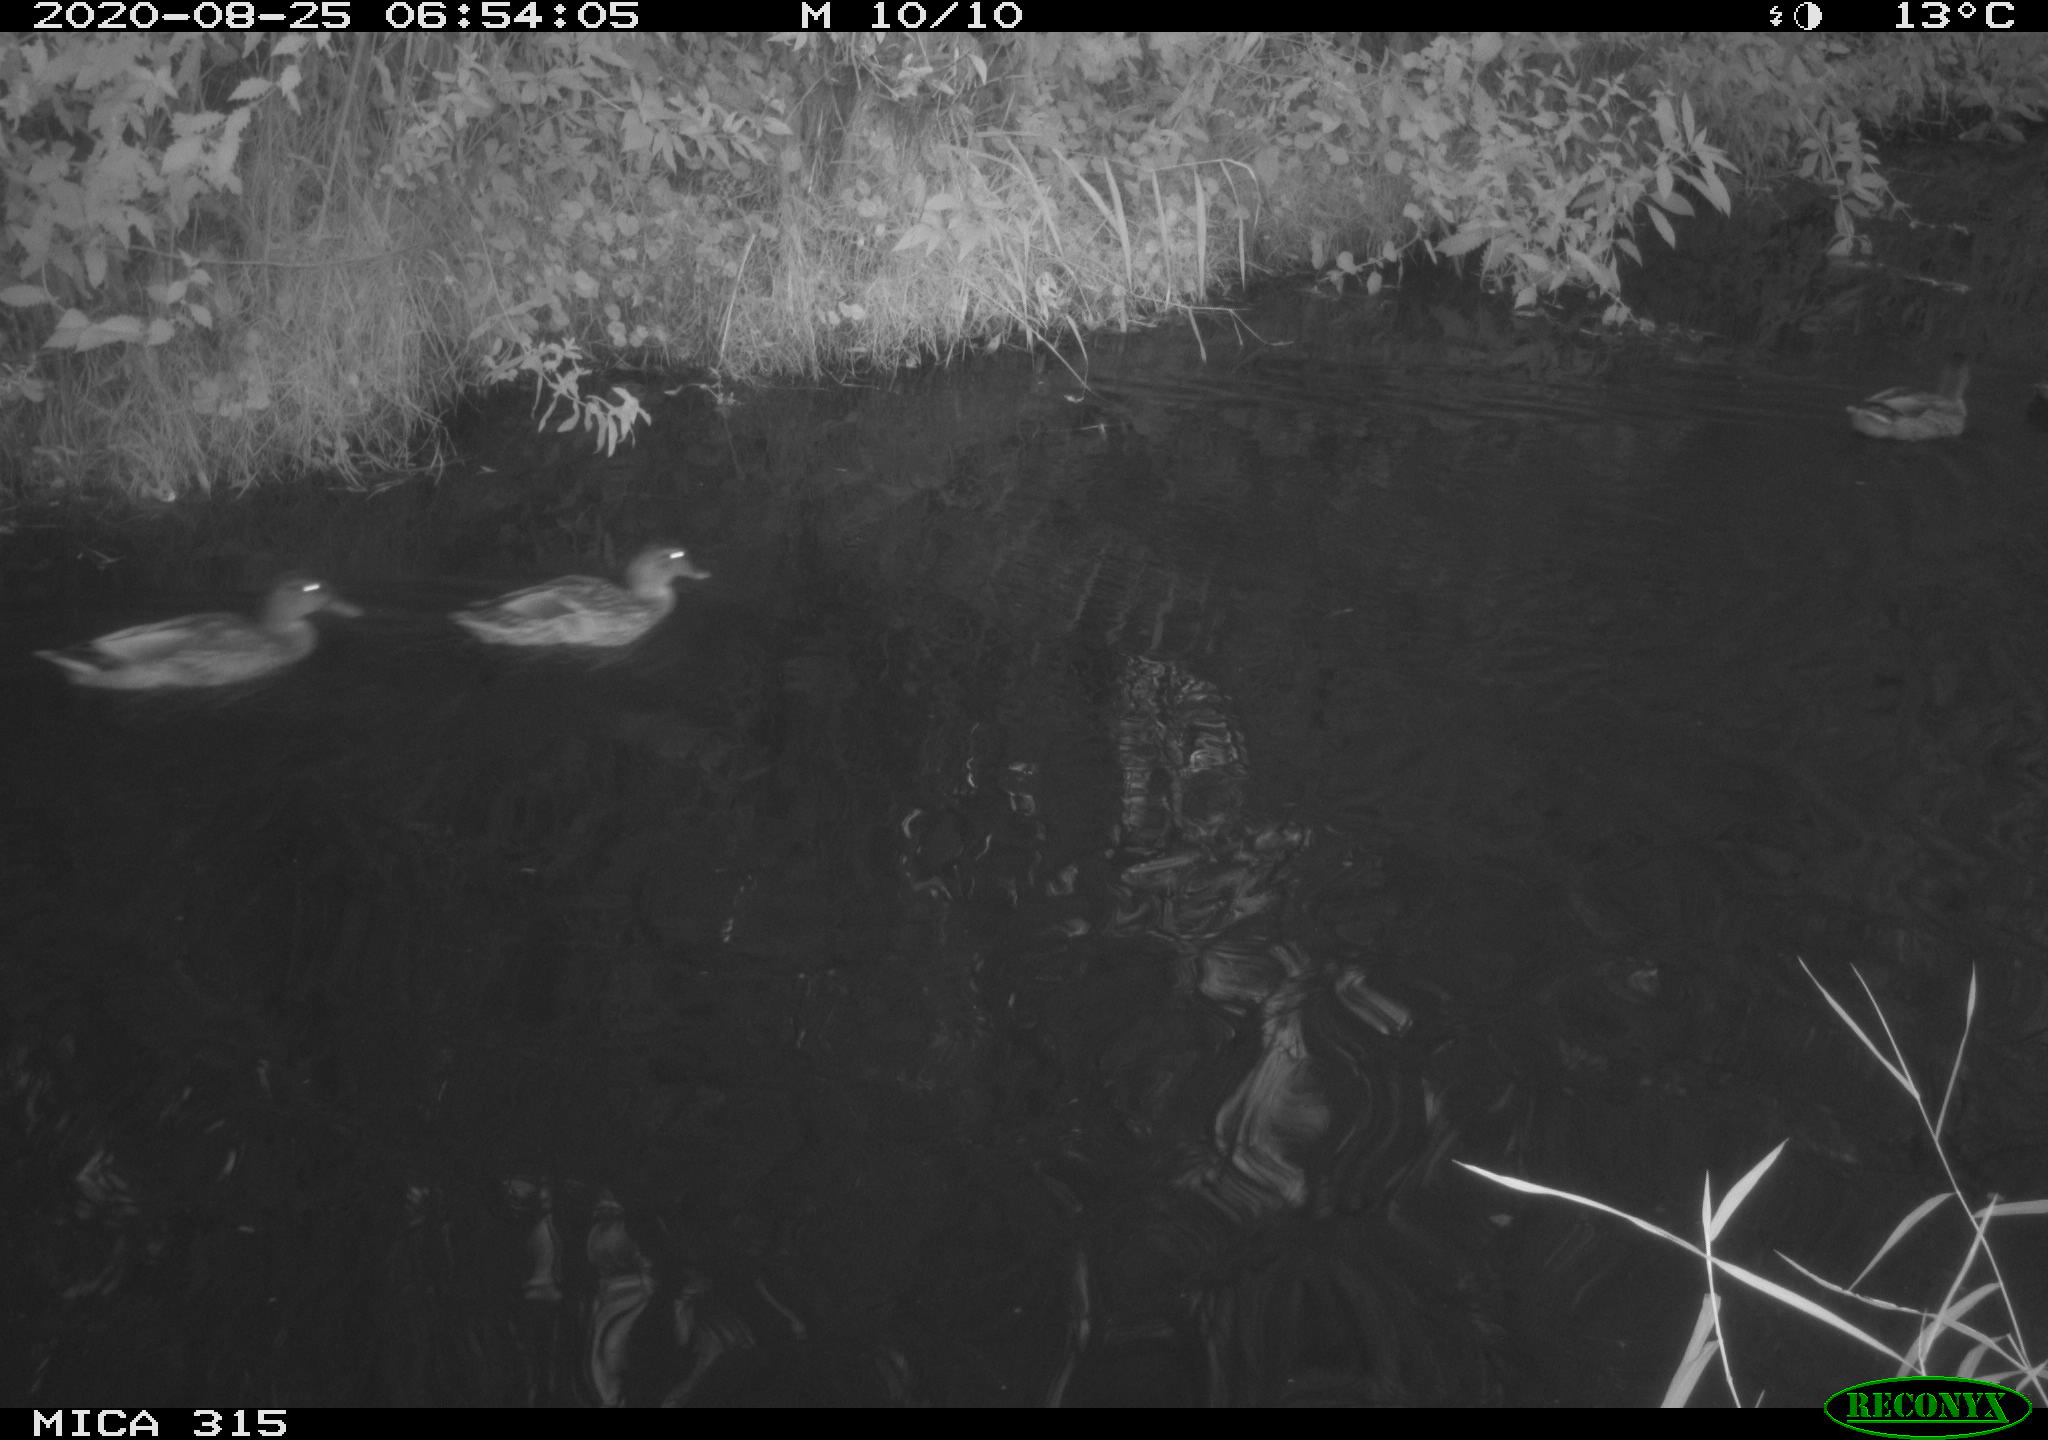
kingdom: Animalia
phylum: Chordata
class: Aves
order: Anseriformes
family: Anatidae
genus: Anas
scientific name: Anas platyrhynchos
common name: Mallard
